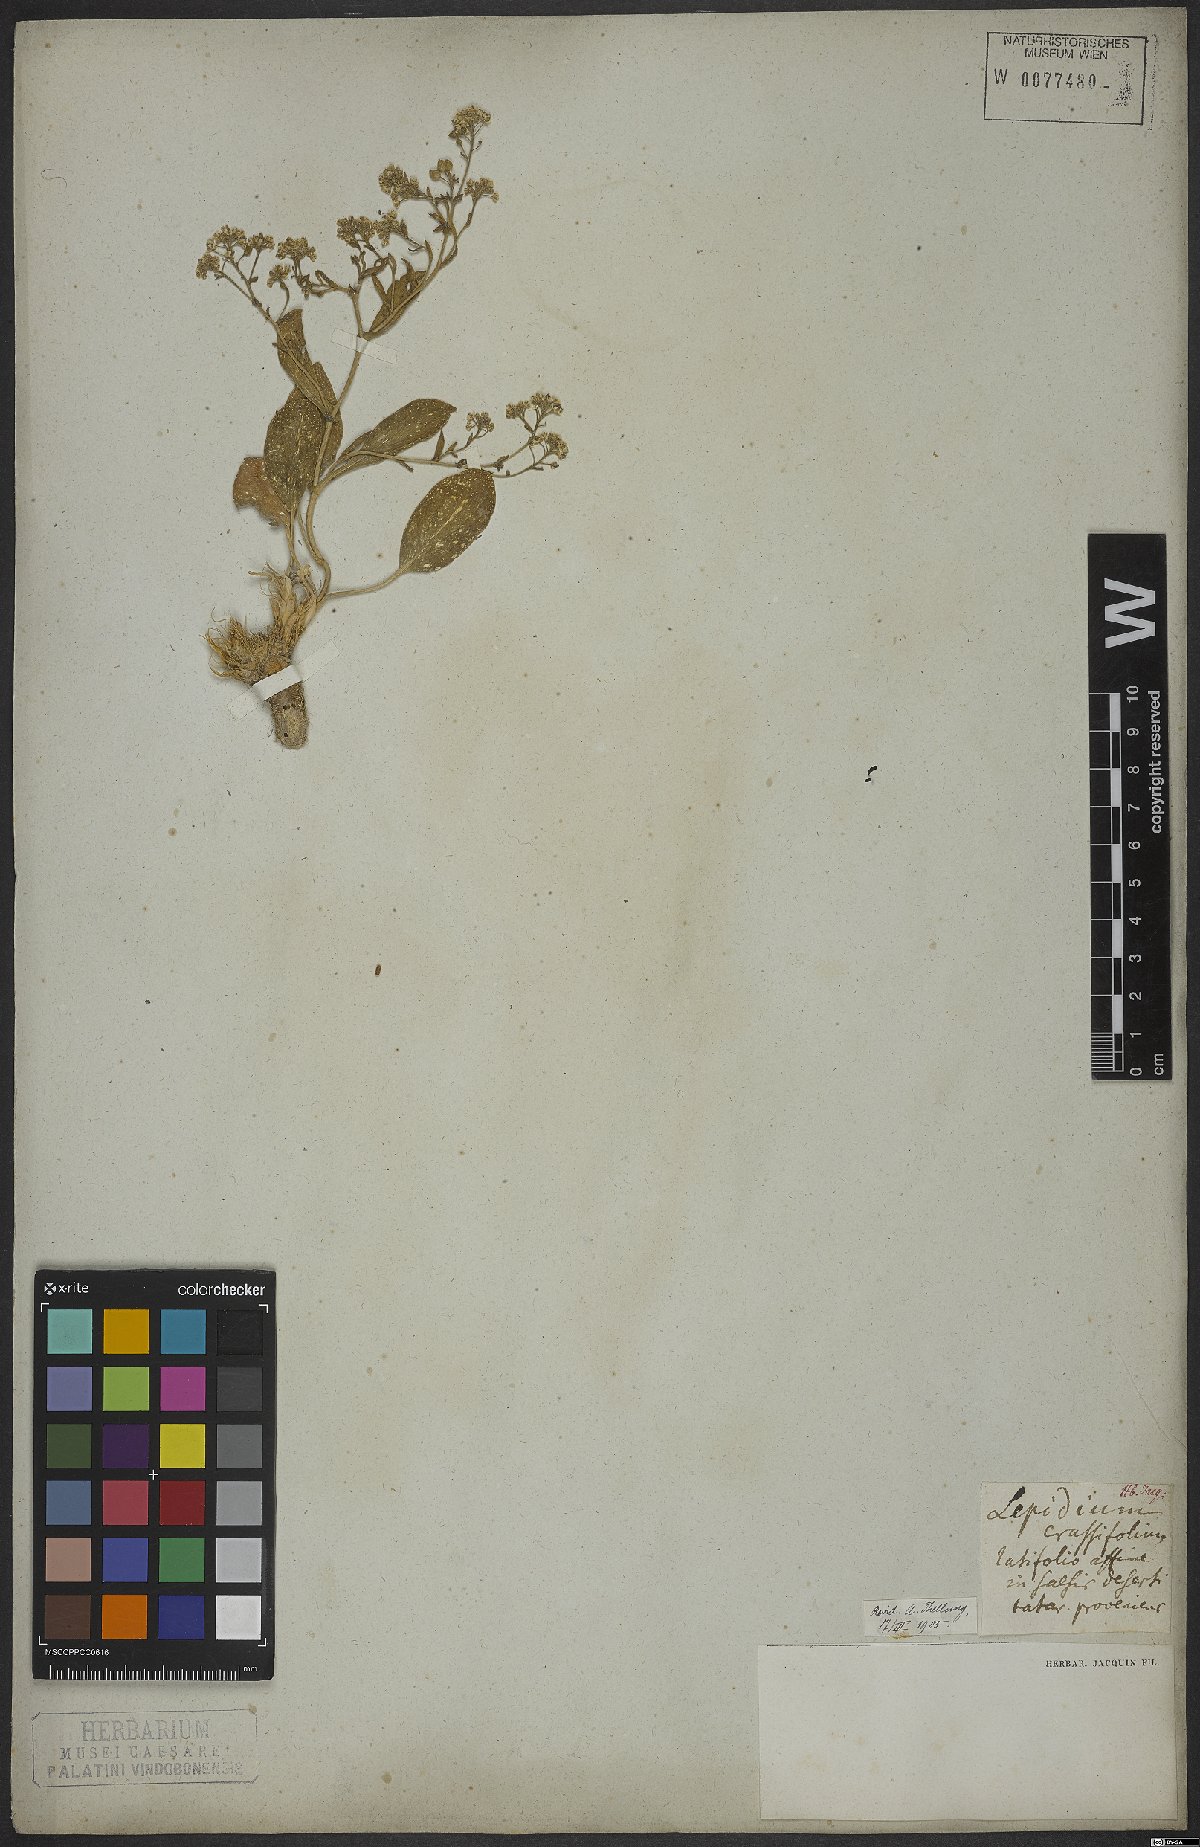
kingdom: Plantae
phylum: Tracheophyta
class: Magnoliopsida
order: Brassicales
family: Brassicaceae
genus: Lepidium
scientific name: Lepidium cartilagineum
